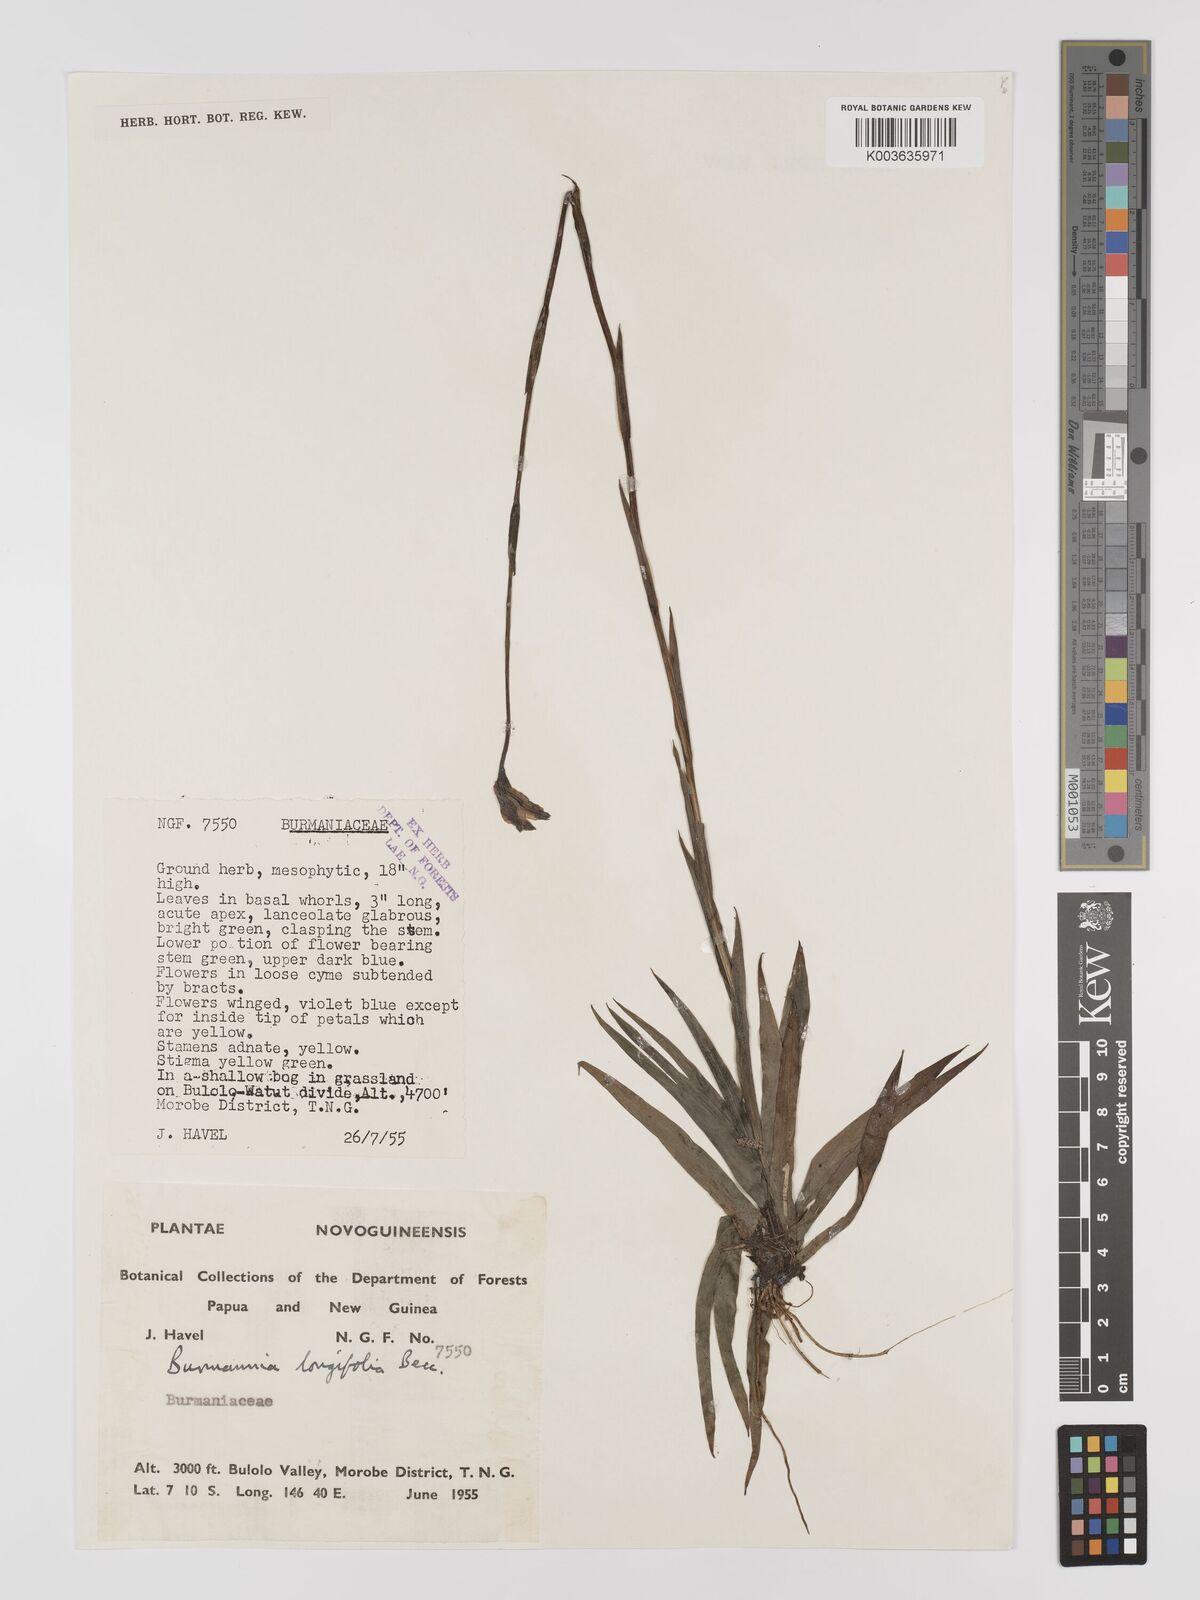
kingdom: Plantae
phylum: Tracheophyta
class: Liliopsida
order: Dioscoreales
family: Burmanniaceae
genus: Burmannia
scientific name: Burmannia longifolia
